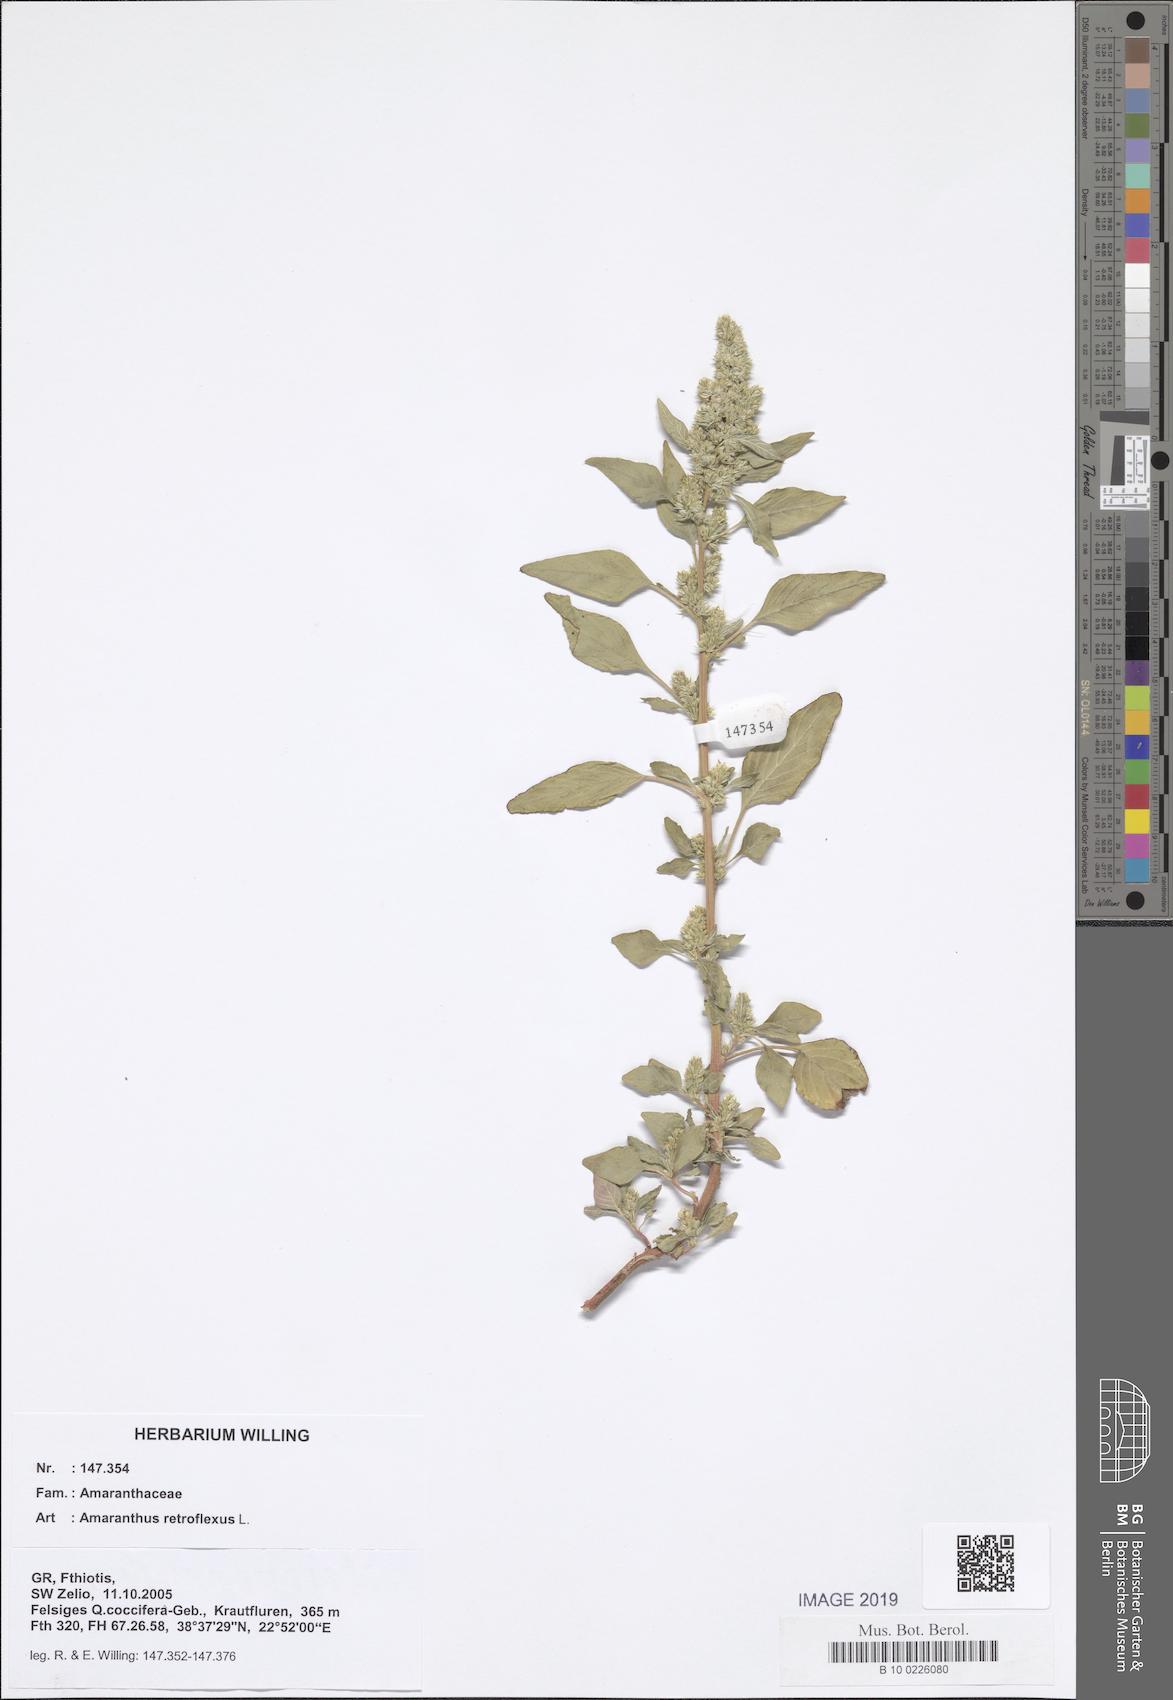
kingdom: Plantae
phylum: Tracheophyta
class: Magnoliopsida
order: Caryophyllales
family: Amaranthaceae
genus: Amaranthus
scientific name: Amaranthus retroflexus
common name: Redroot amaranth
